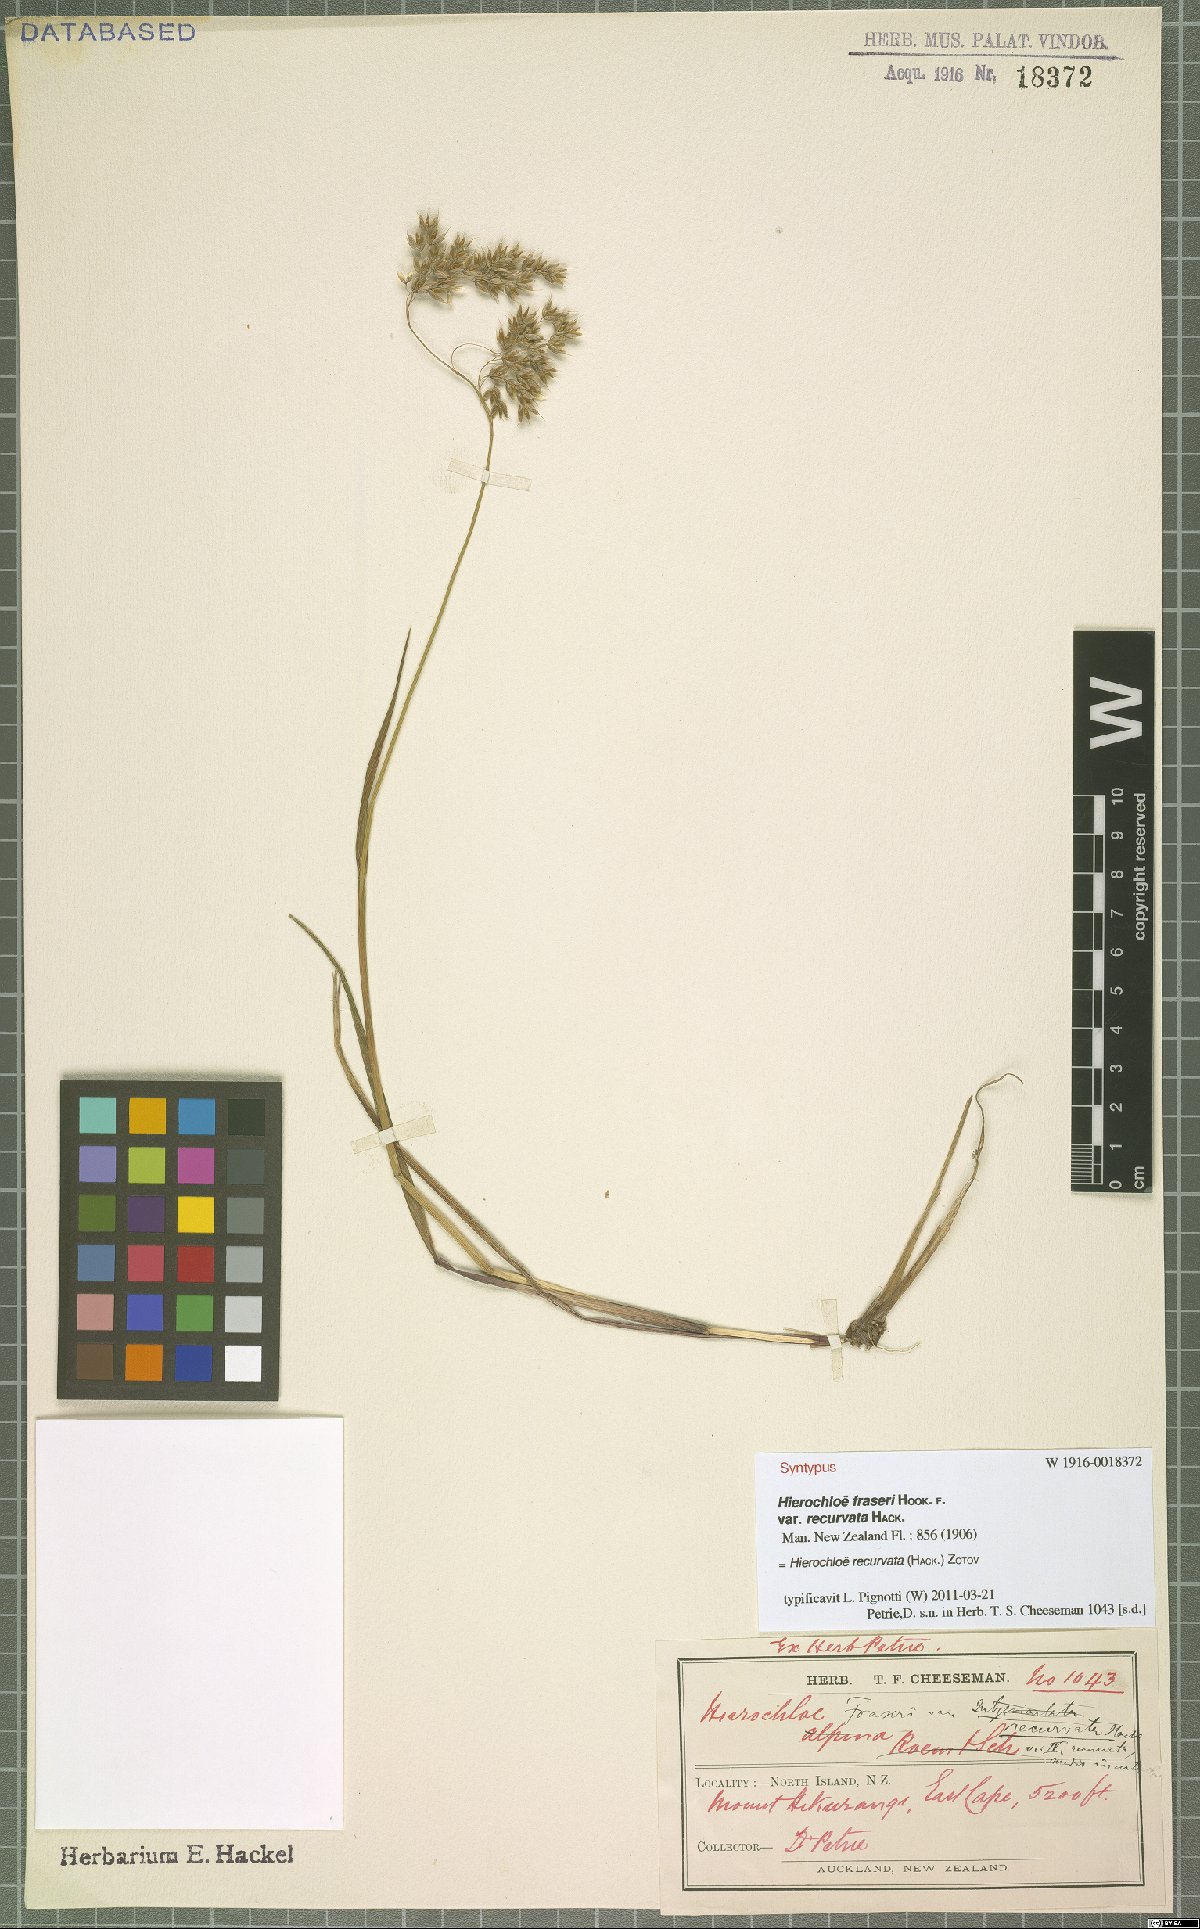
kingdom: Plantae
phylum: Tracheophyta
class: Liliopsida
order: Poales
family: Poaceae
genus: Anthoxanthum
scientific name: Anthoxanthum recurvatum
